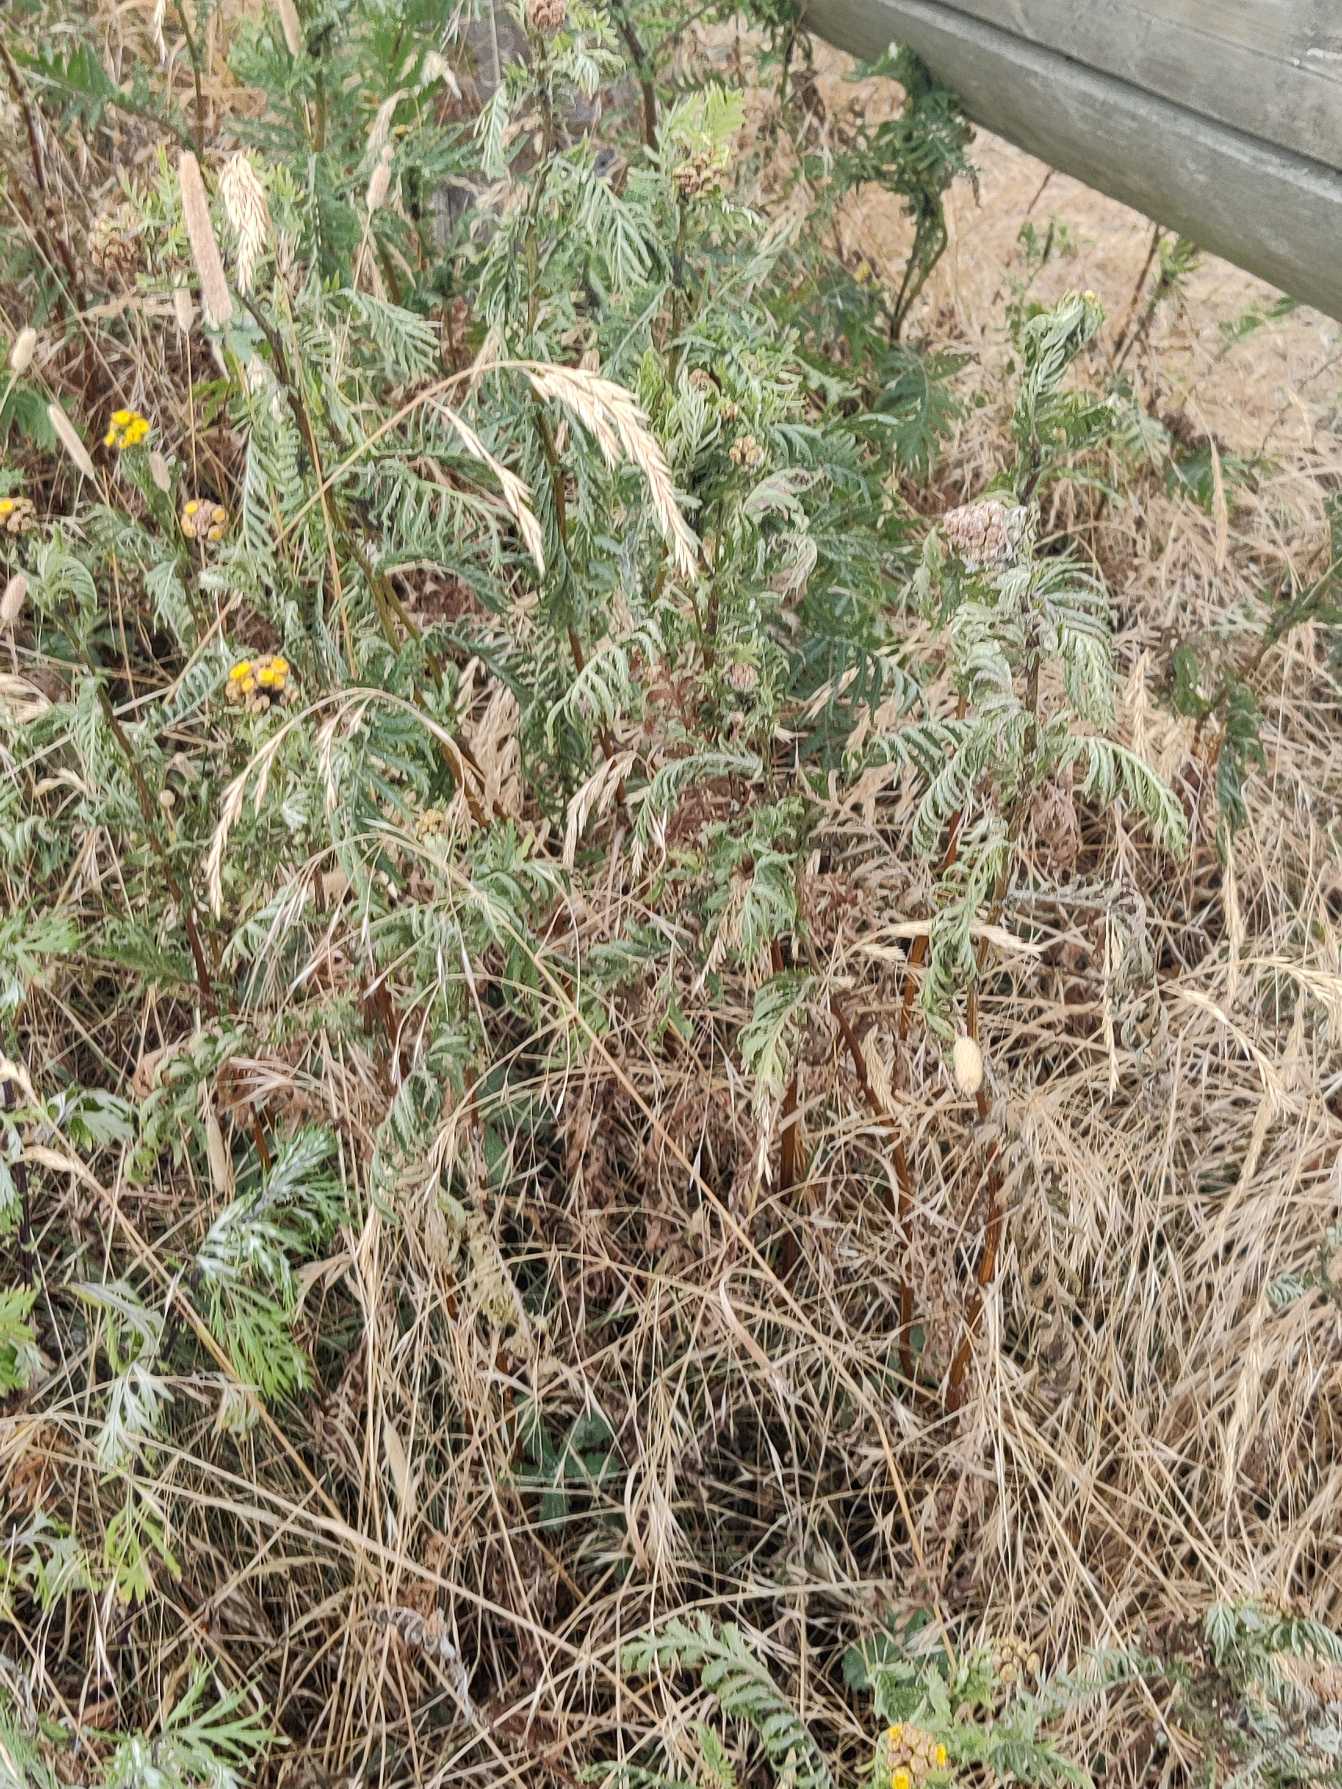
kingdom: Plantae
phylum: Tracheophyta
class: Magnoliopsida
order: Asterales
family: Asteraceae
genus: Tanacetum
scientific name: Tanacetum vulgare
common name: Rejnfan
